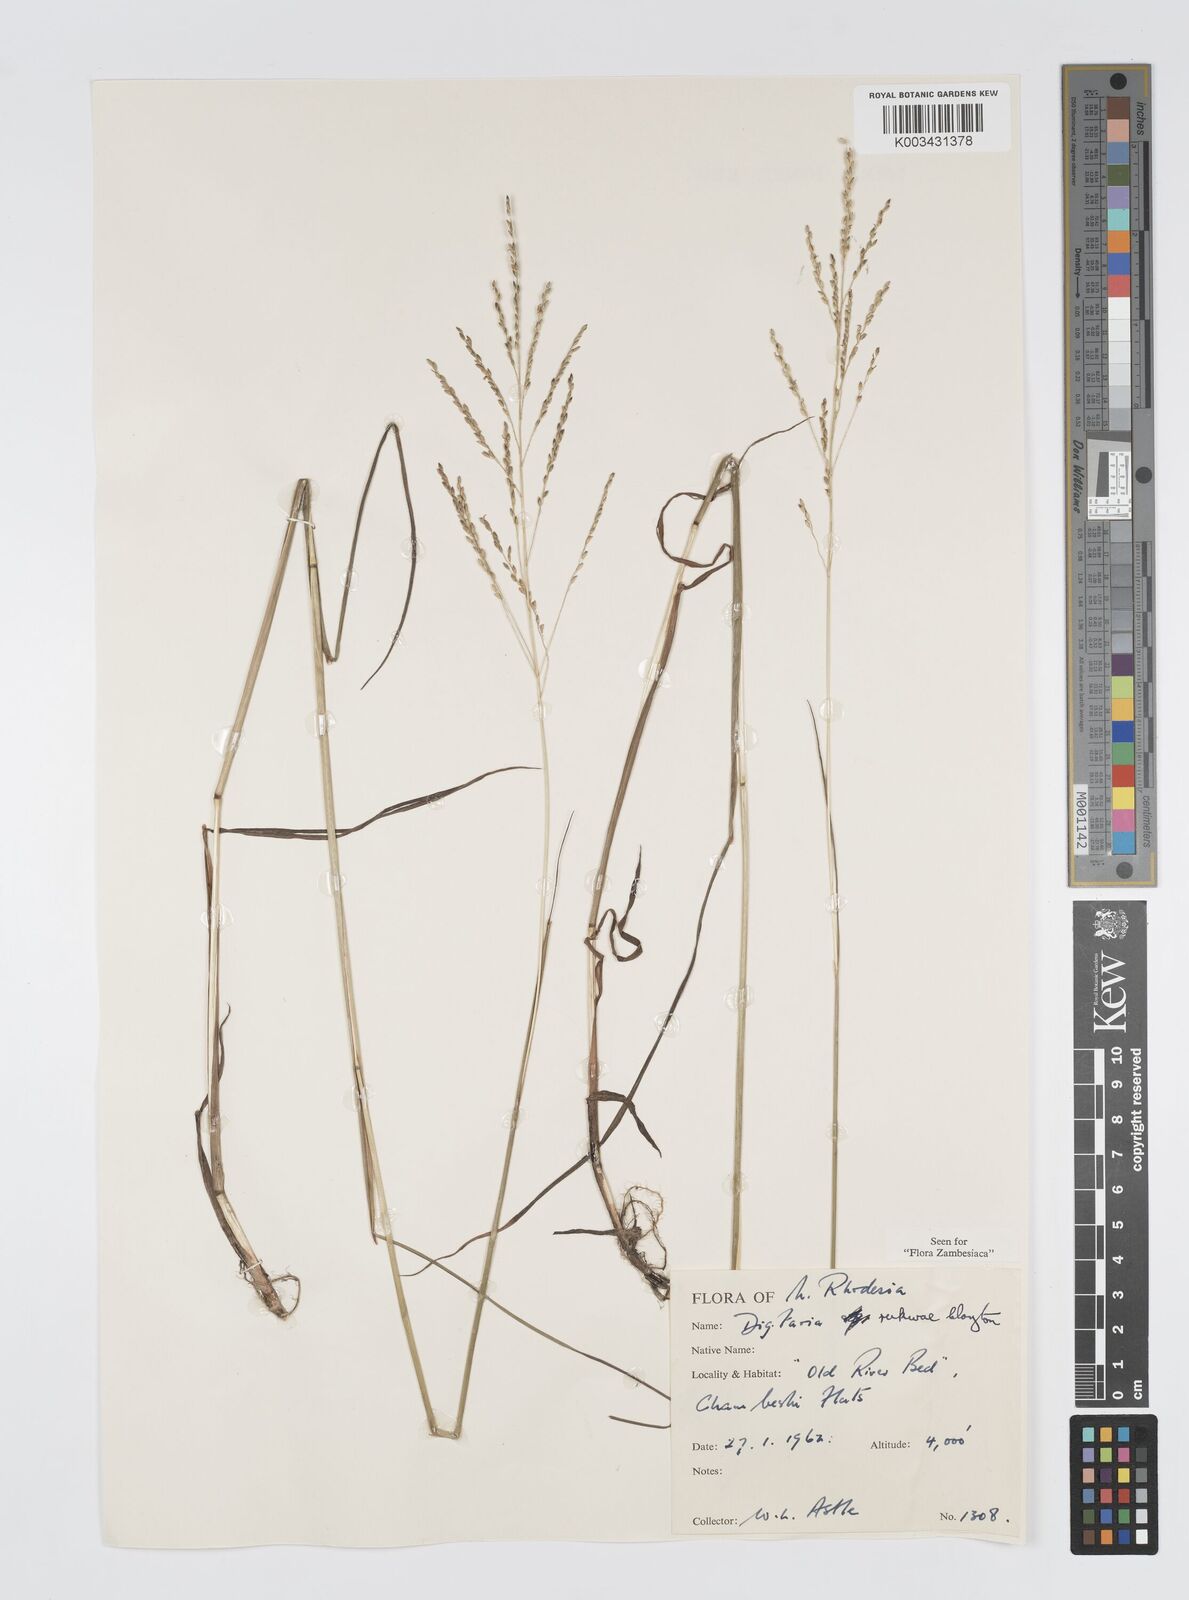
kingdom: Plantae
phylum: Tracheophyta
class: Liliopsida
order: Poales
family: Poaceae
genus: Digitaria
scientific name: Digitaria rukwae
